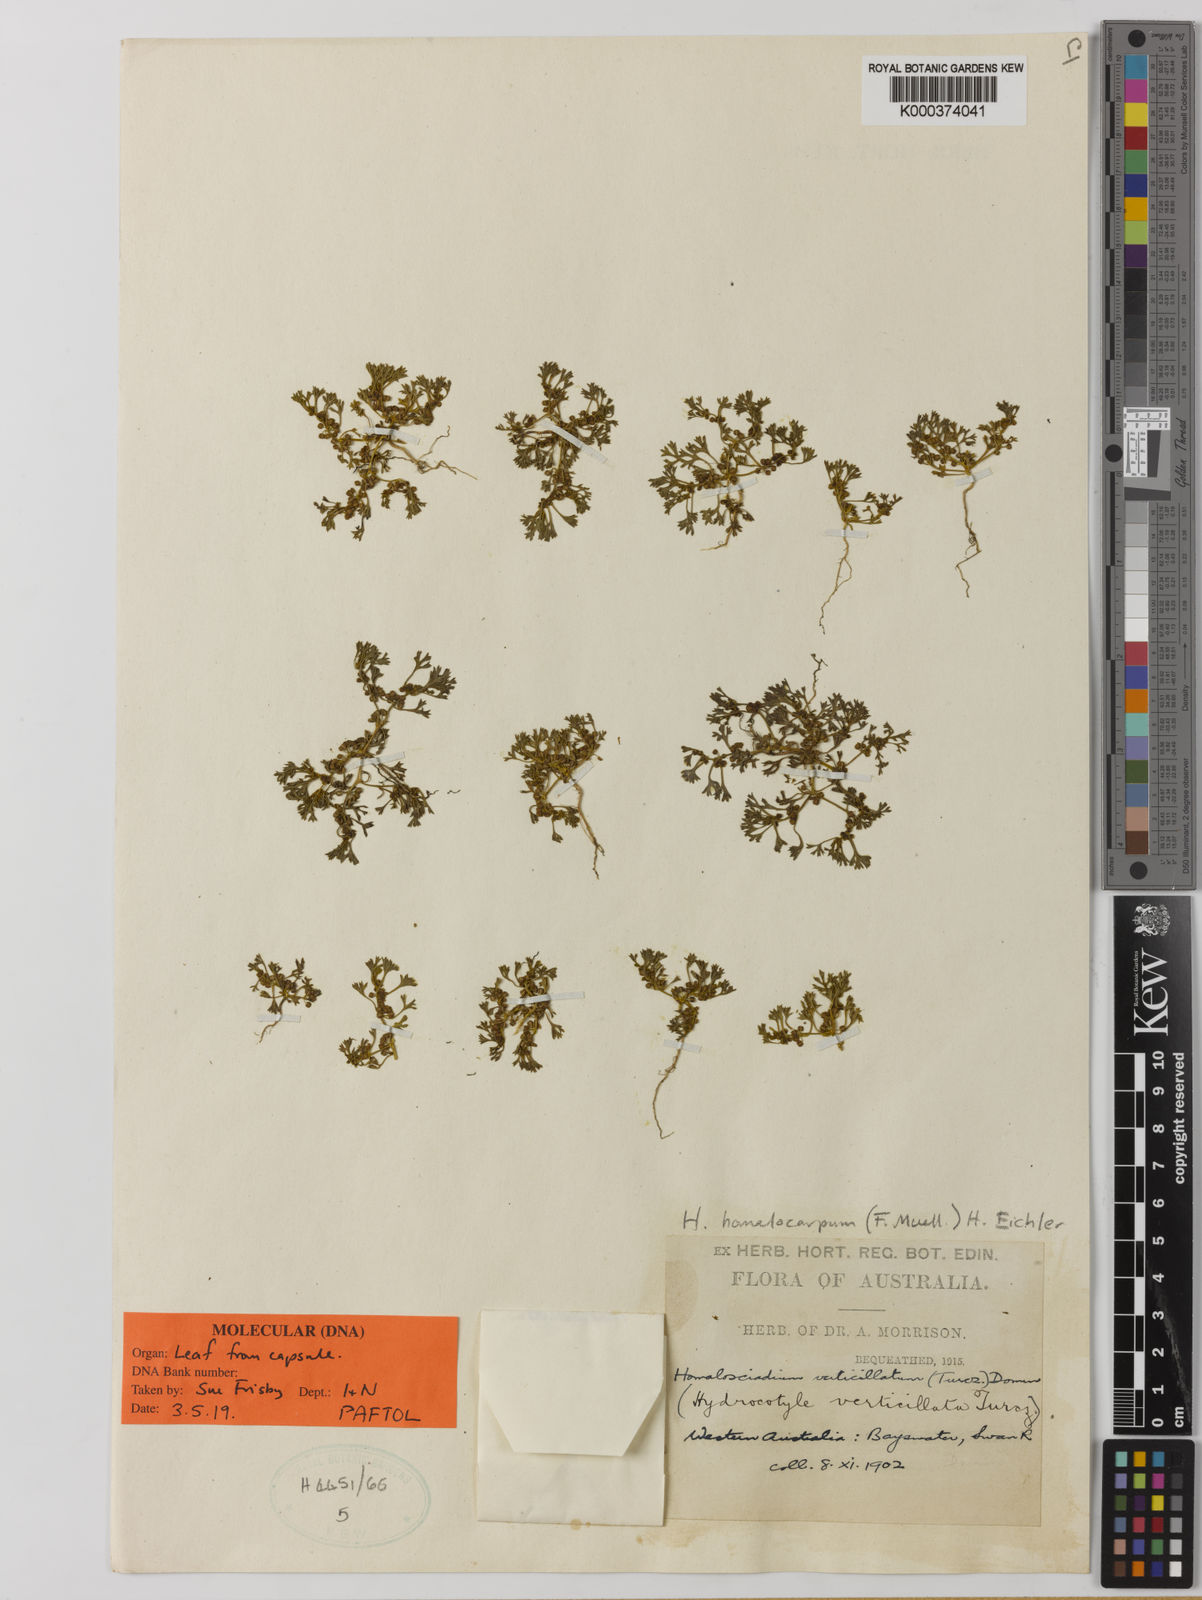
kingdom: Plantae
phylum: Tracheophyta
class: Magnoliopsida
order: Apiales
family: Apiaceae
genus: Homalosciadium
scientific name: Homalosciadium
